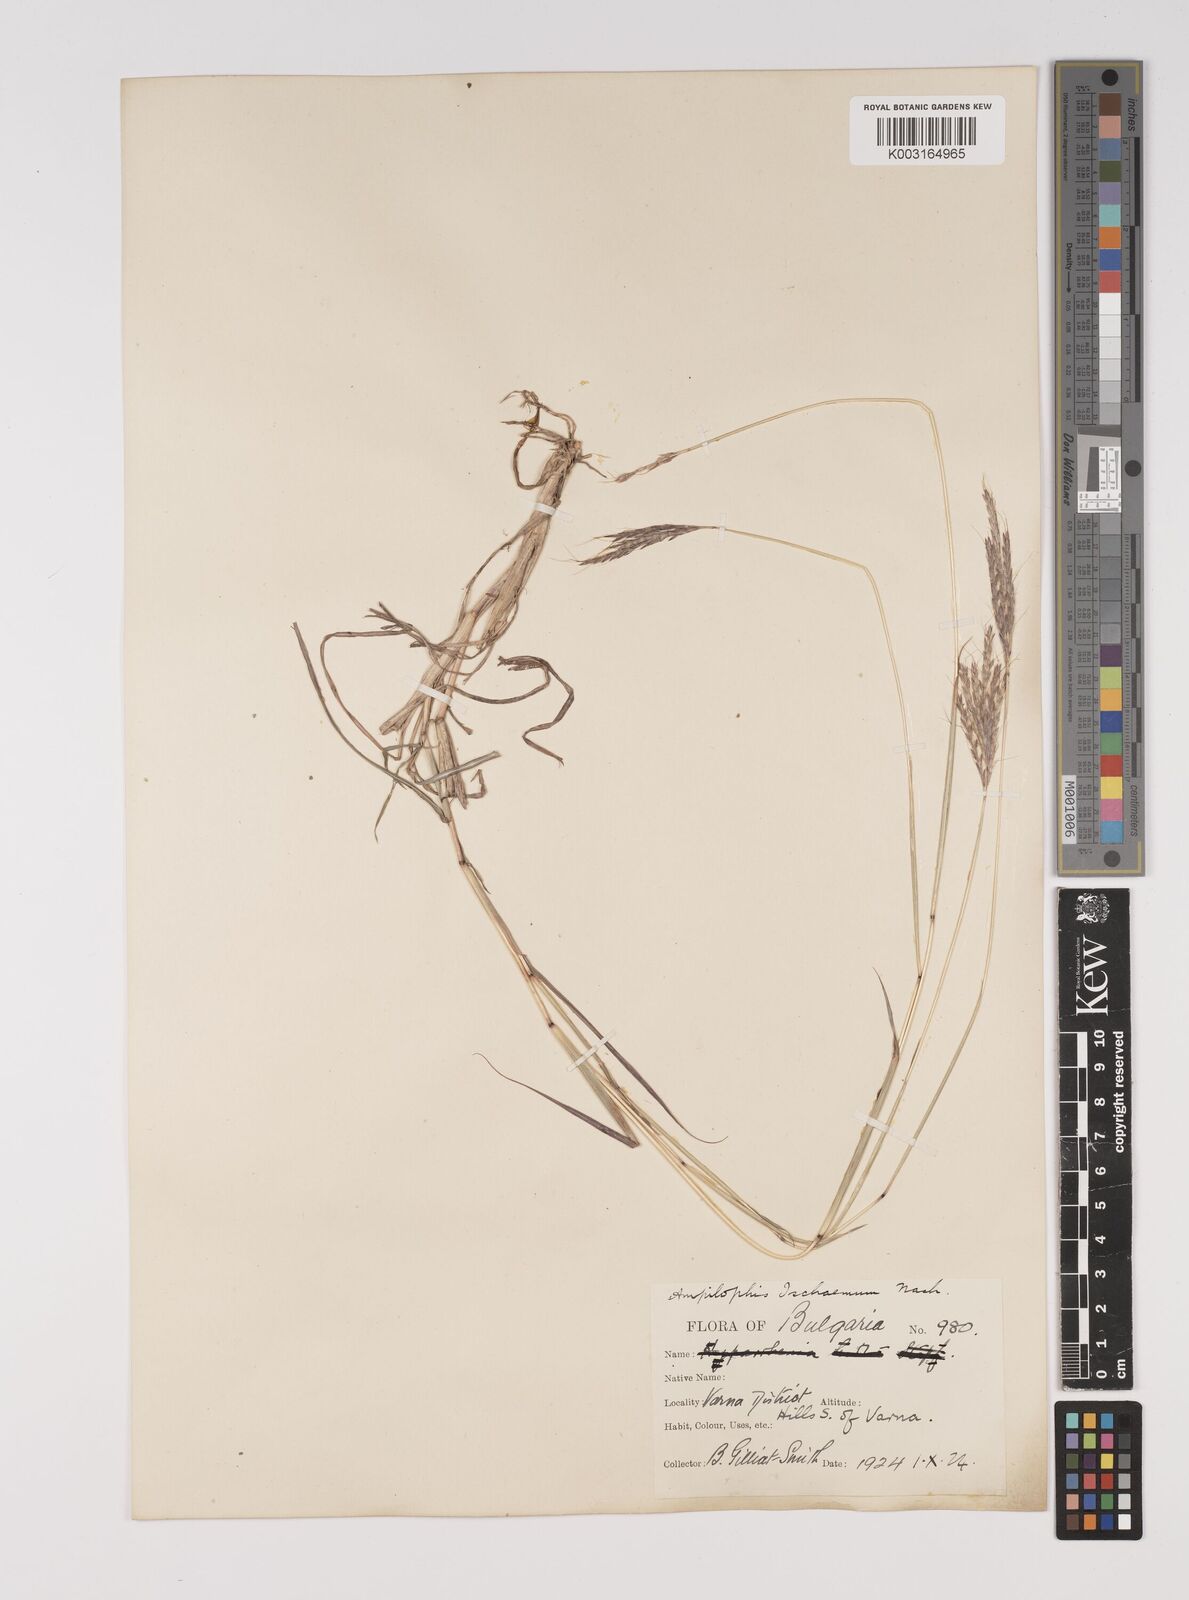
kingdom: Plantae
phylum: Tracheophyta
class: Liliopsida
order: Poales
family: Poaceae
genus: Bothriochloa
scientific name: Bothriochloa ischaemum
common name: Yellow bluestem
